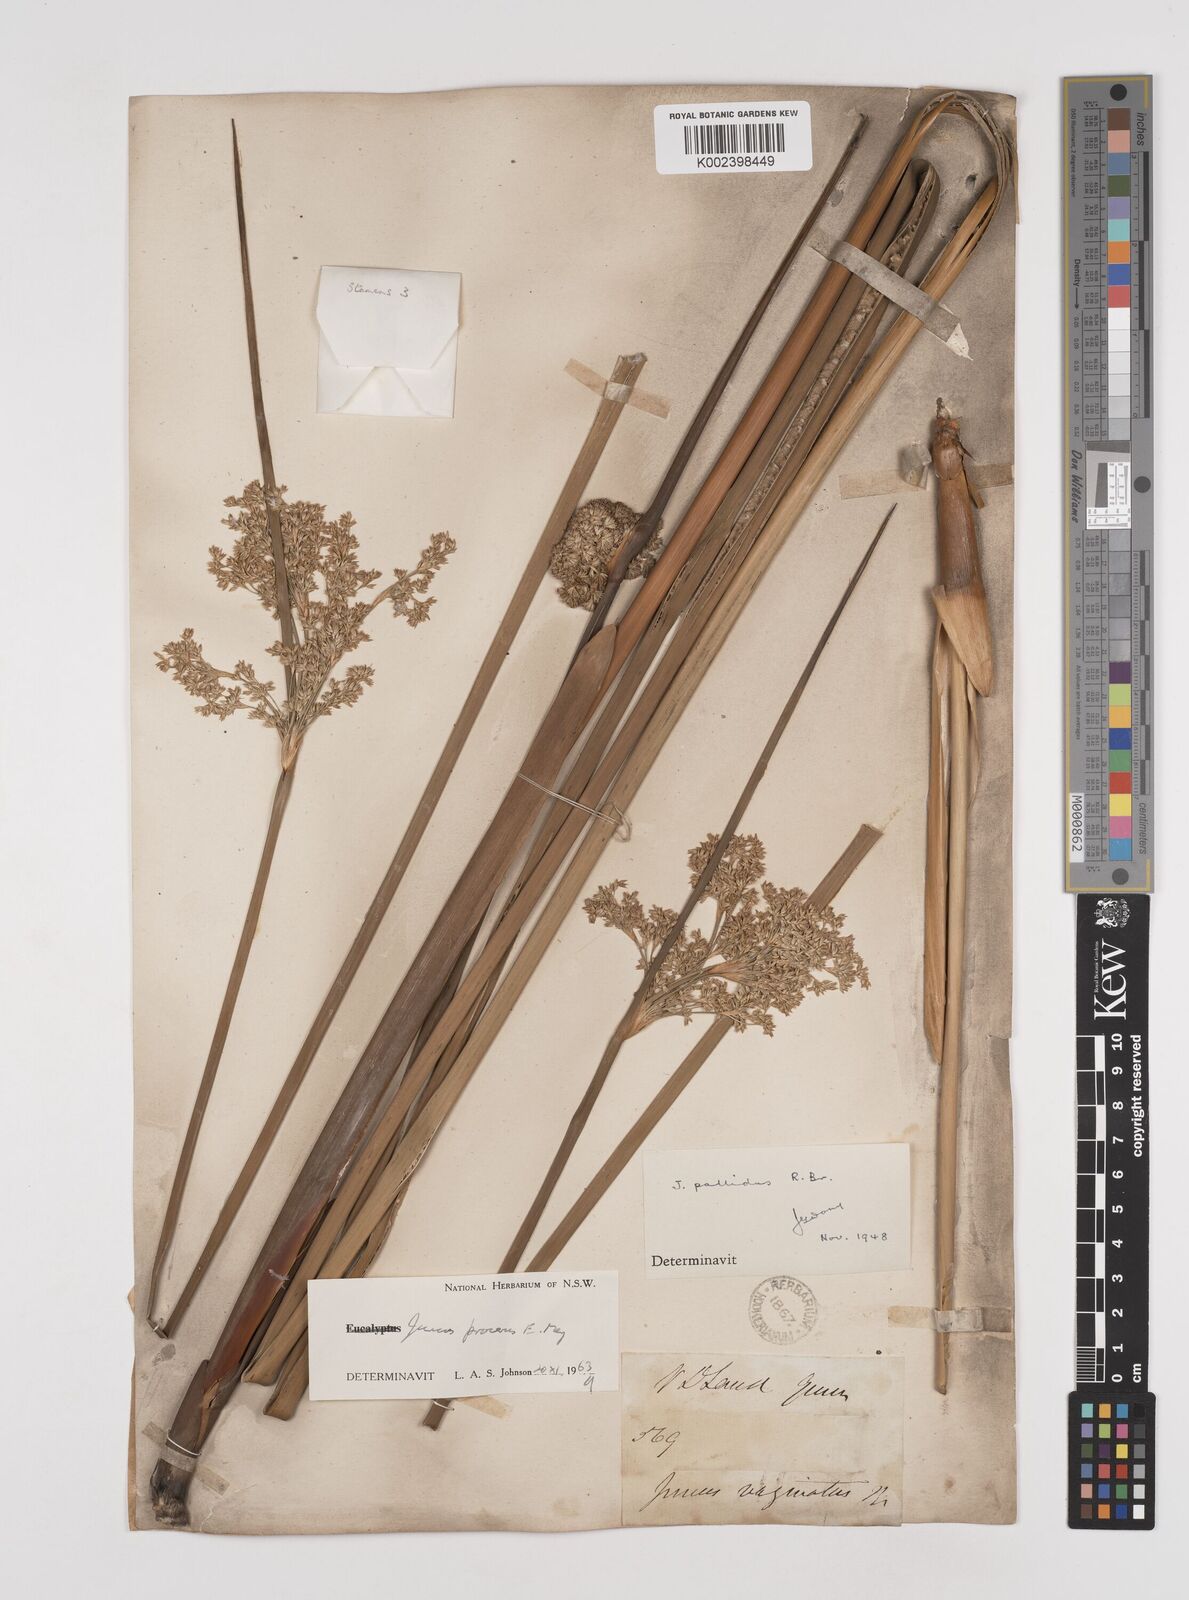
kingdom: Plantae
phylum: Tracheophyta
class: Liliopsida
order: Poales
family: Juncaceae
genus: Juncus
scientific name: Juncus procerus
